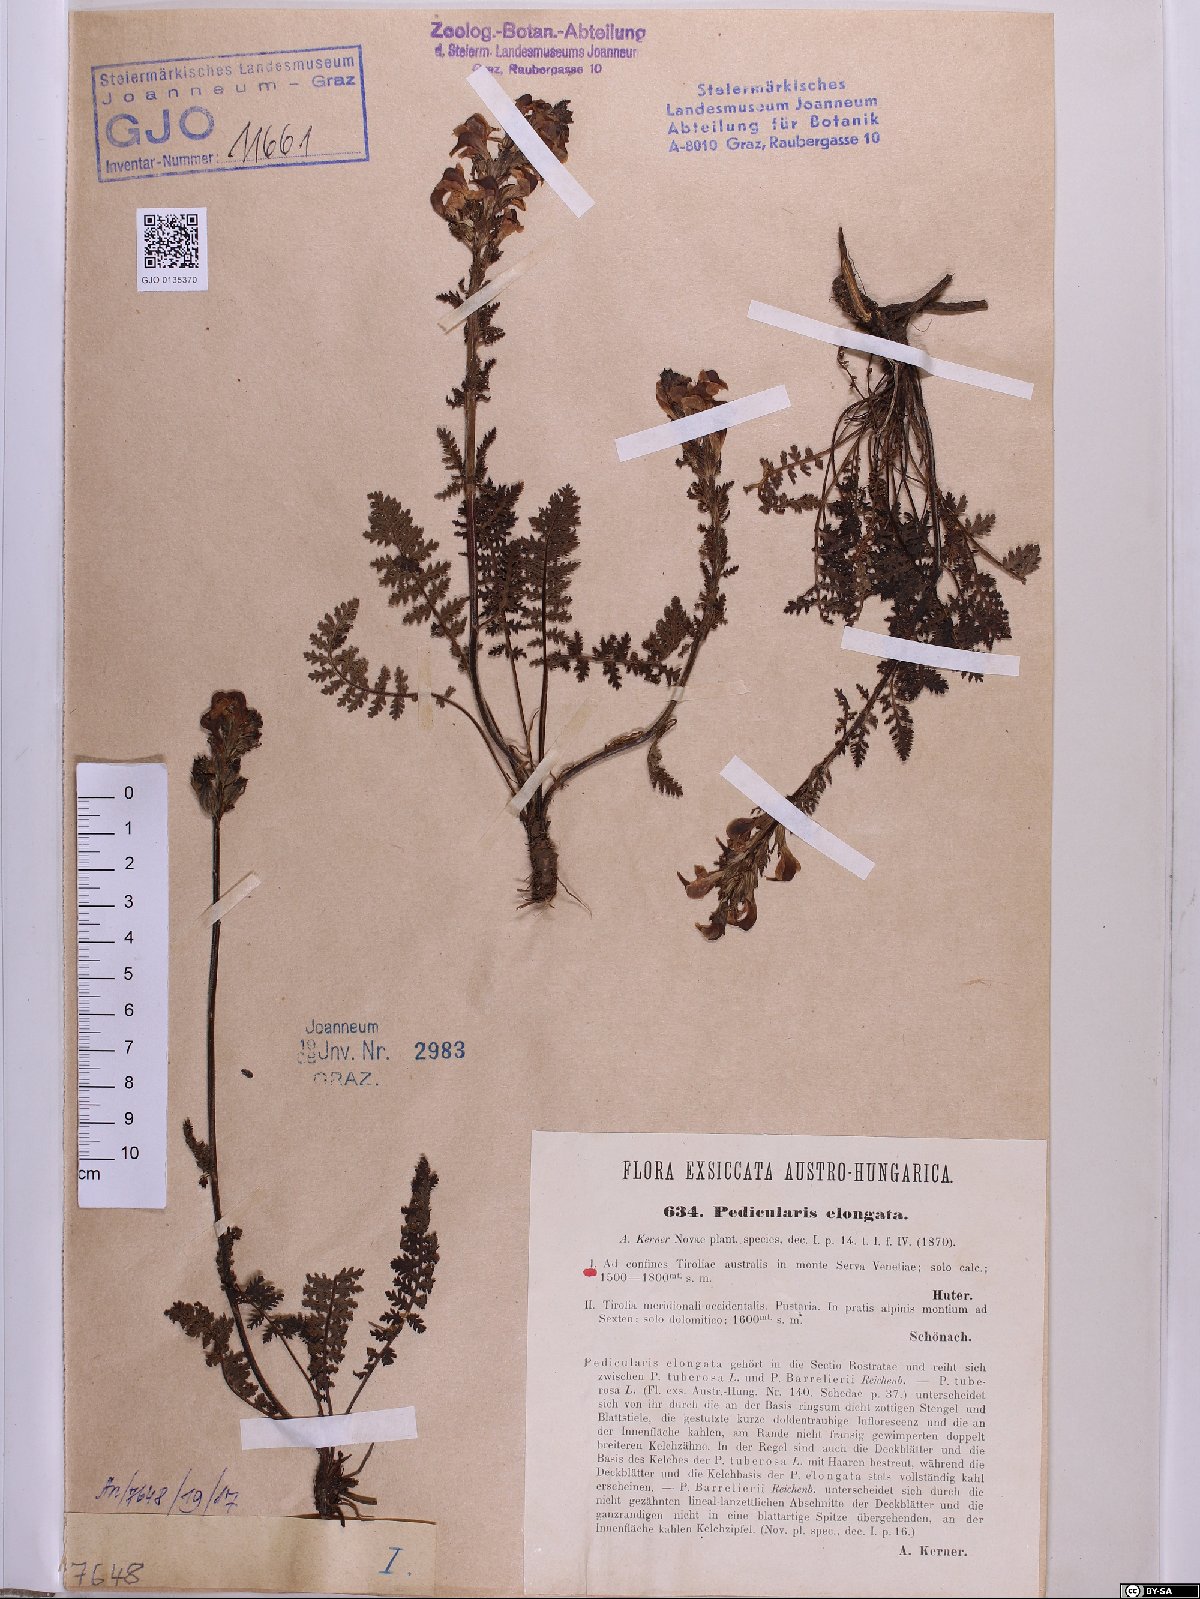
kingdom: Plantae
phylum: Tracheophyta
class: Magnoliopsida
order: Lamiales
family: Orobanchaceae
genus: Pedicularis
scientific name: Pedicularis elongata
